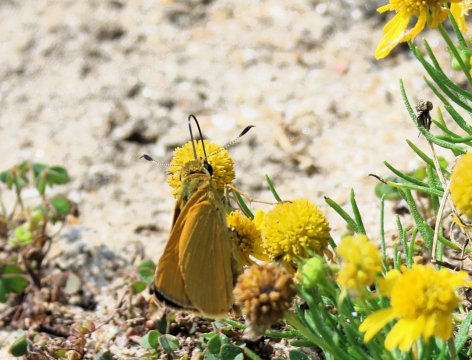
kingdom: Animalia
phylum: Arthropoda
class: Insecta
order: Lepidoptera
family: Hesperiidae
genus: Atrytone
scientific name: Atrytone delaware
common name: Delaware Skipper
